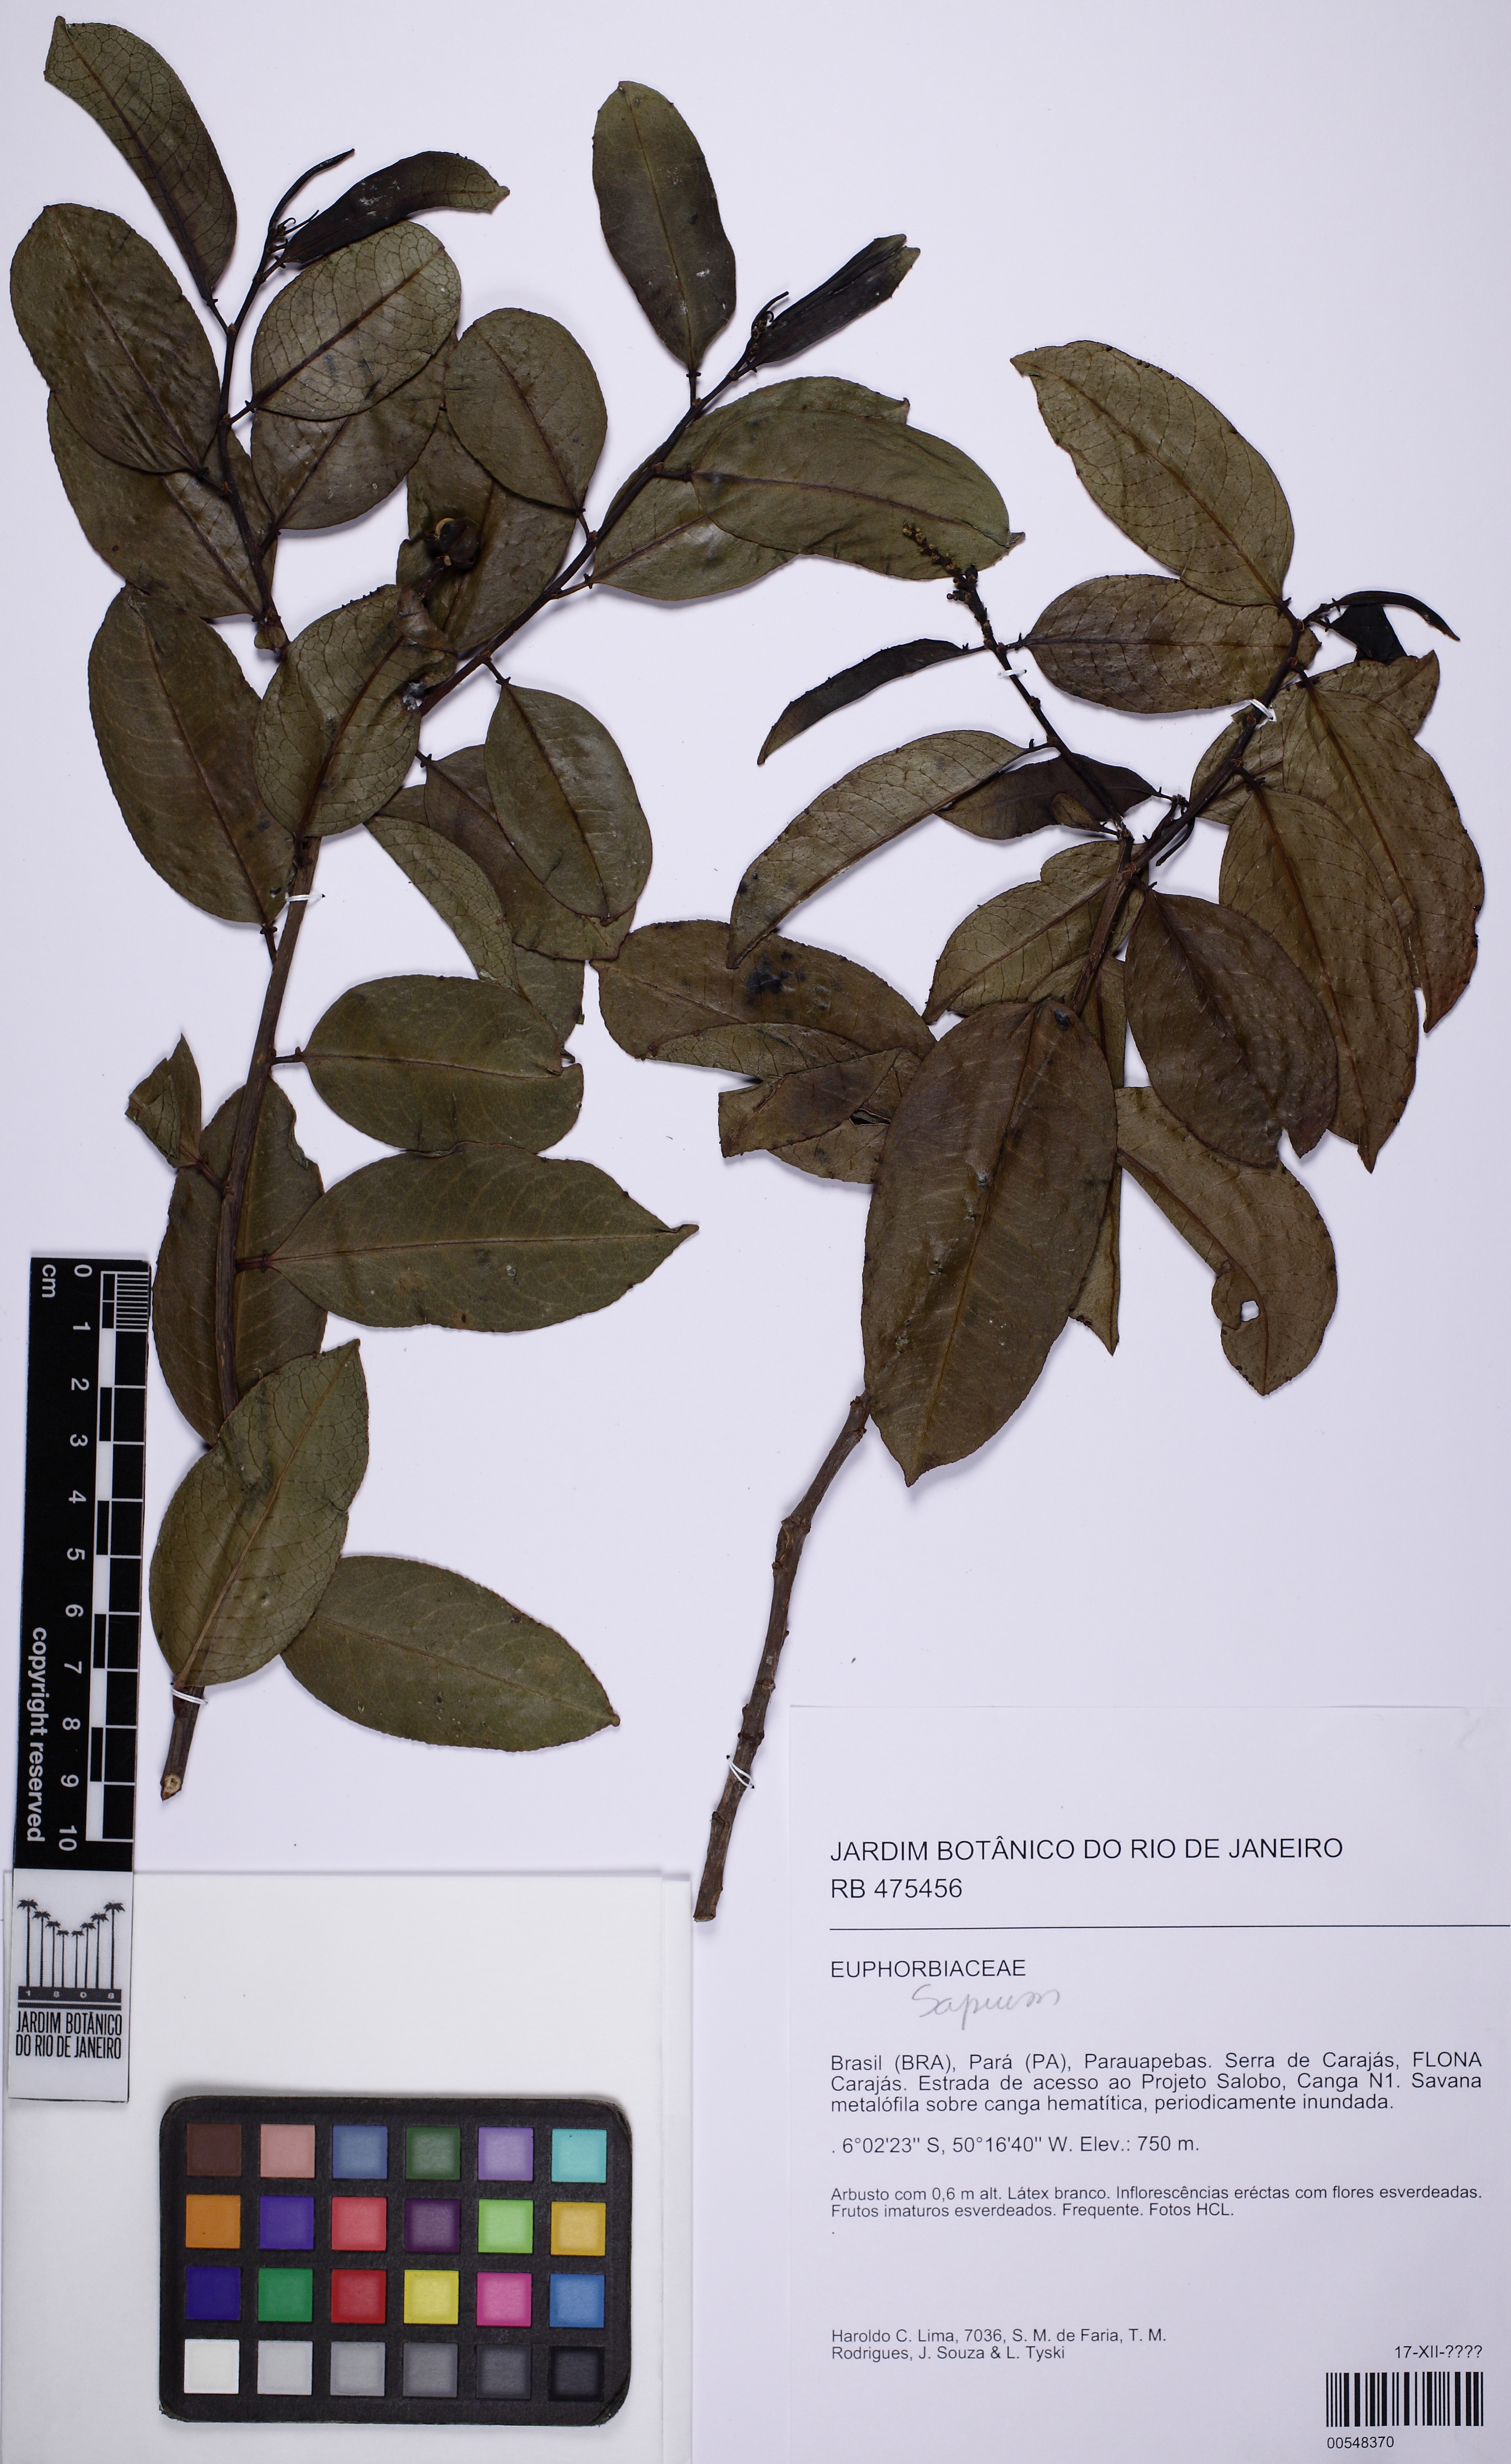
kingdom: Plantae
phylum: Tracheophyta
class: Magnoliopsida
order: Malpighiales
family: Euphorbiaceae
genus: Sapium
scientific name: Sapium argutum
